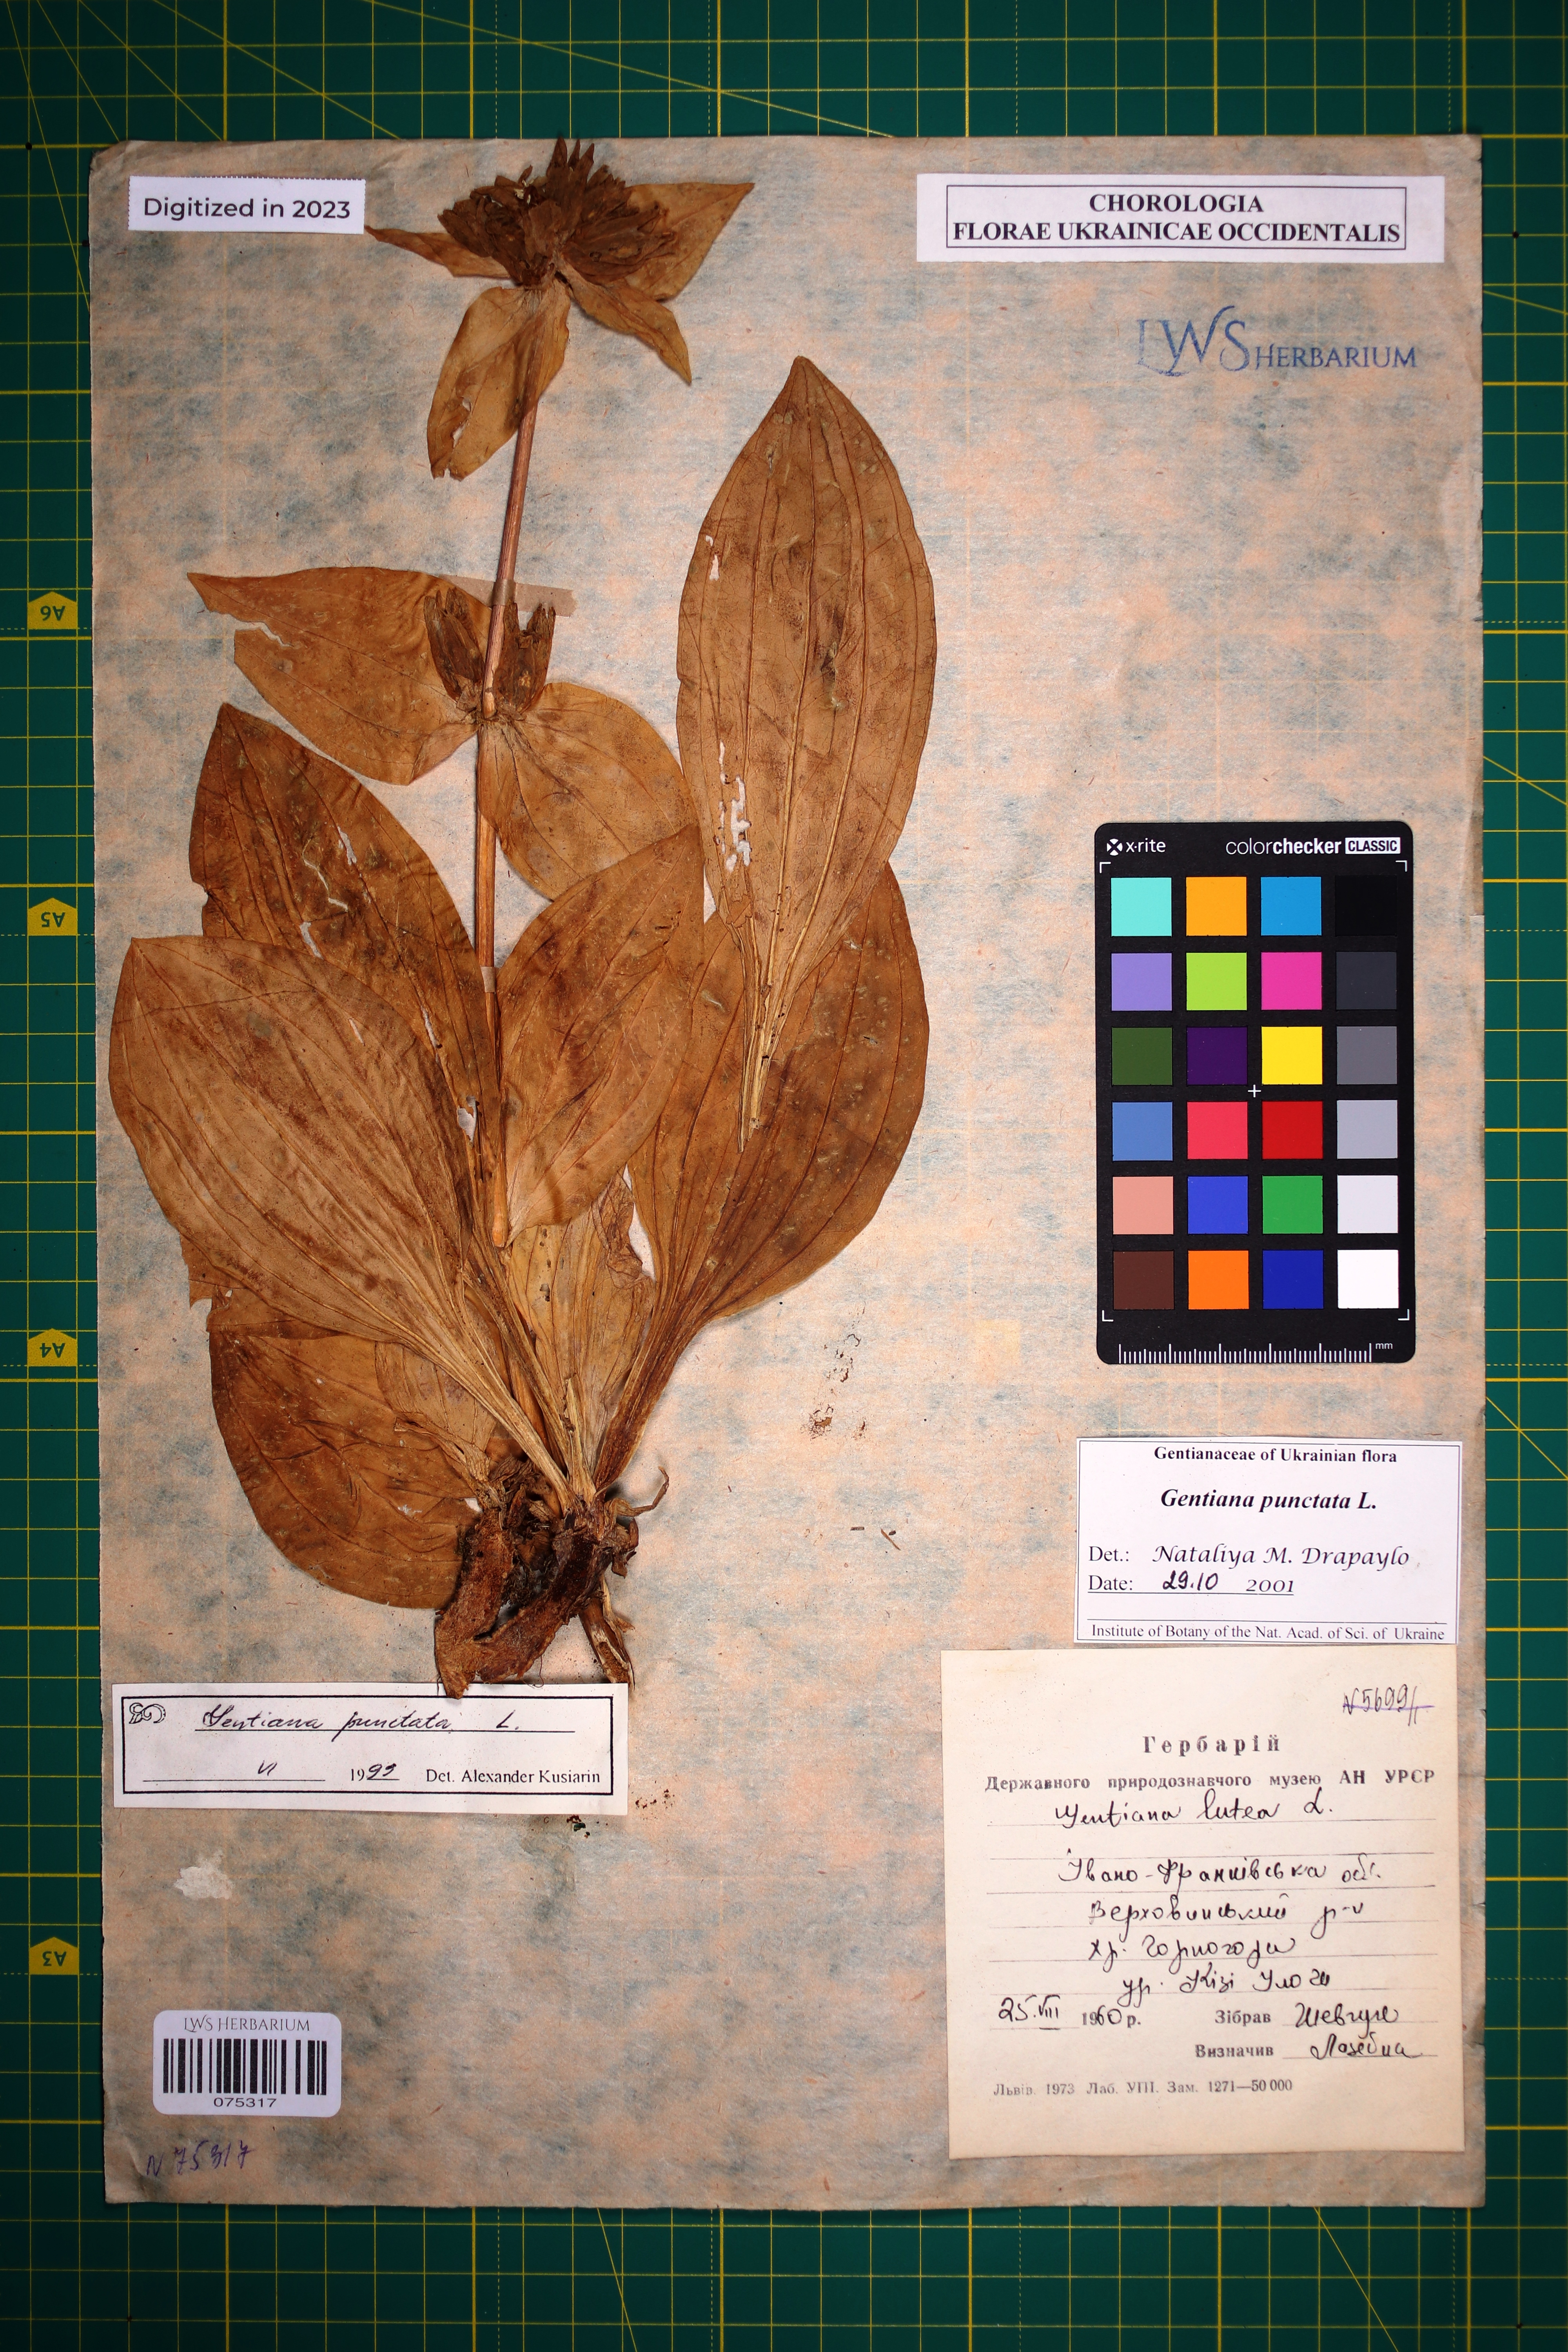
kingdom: Plantae
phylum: Tracheophyta
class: Magnoliopsida
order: Gentianales
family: Gentianaceae
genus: Gentiana
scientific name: Gentiana punctata
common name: Spotted gentian
